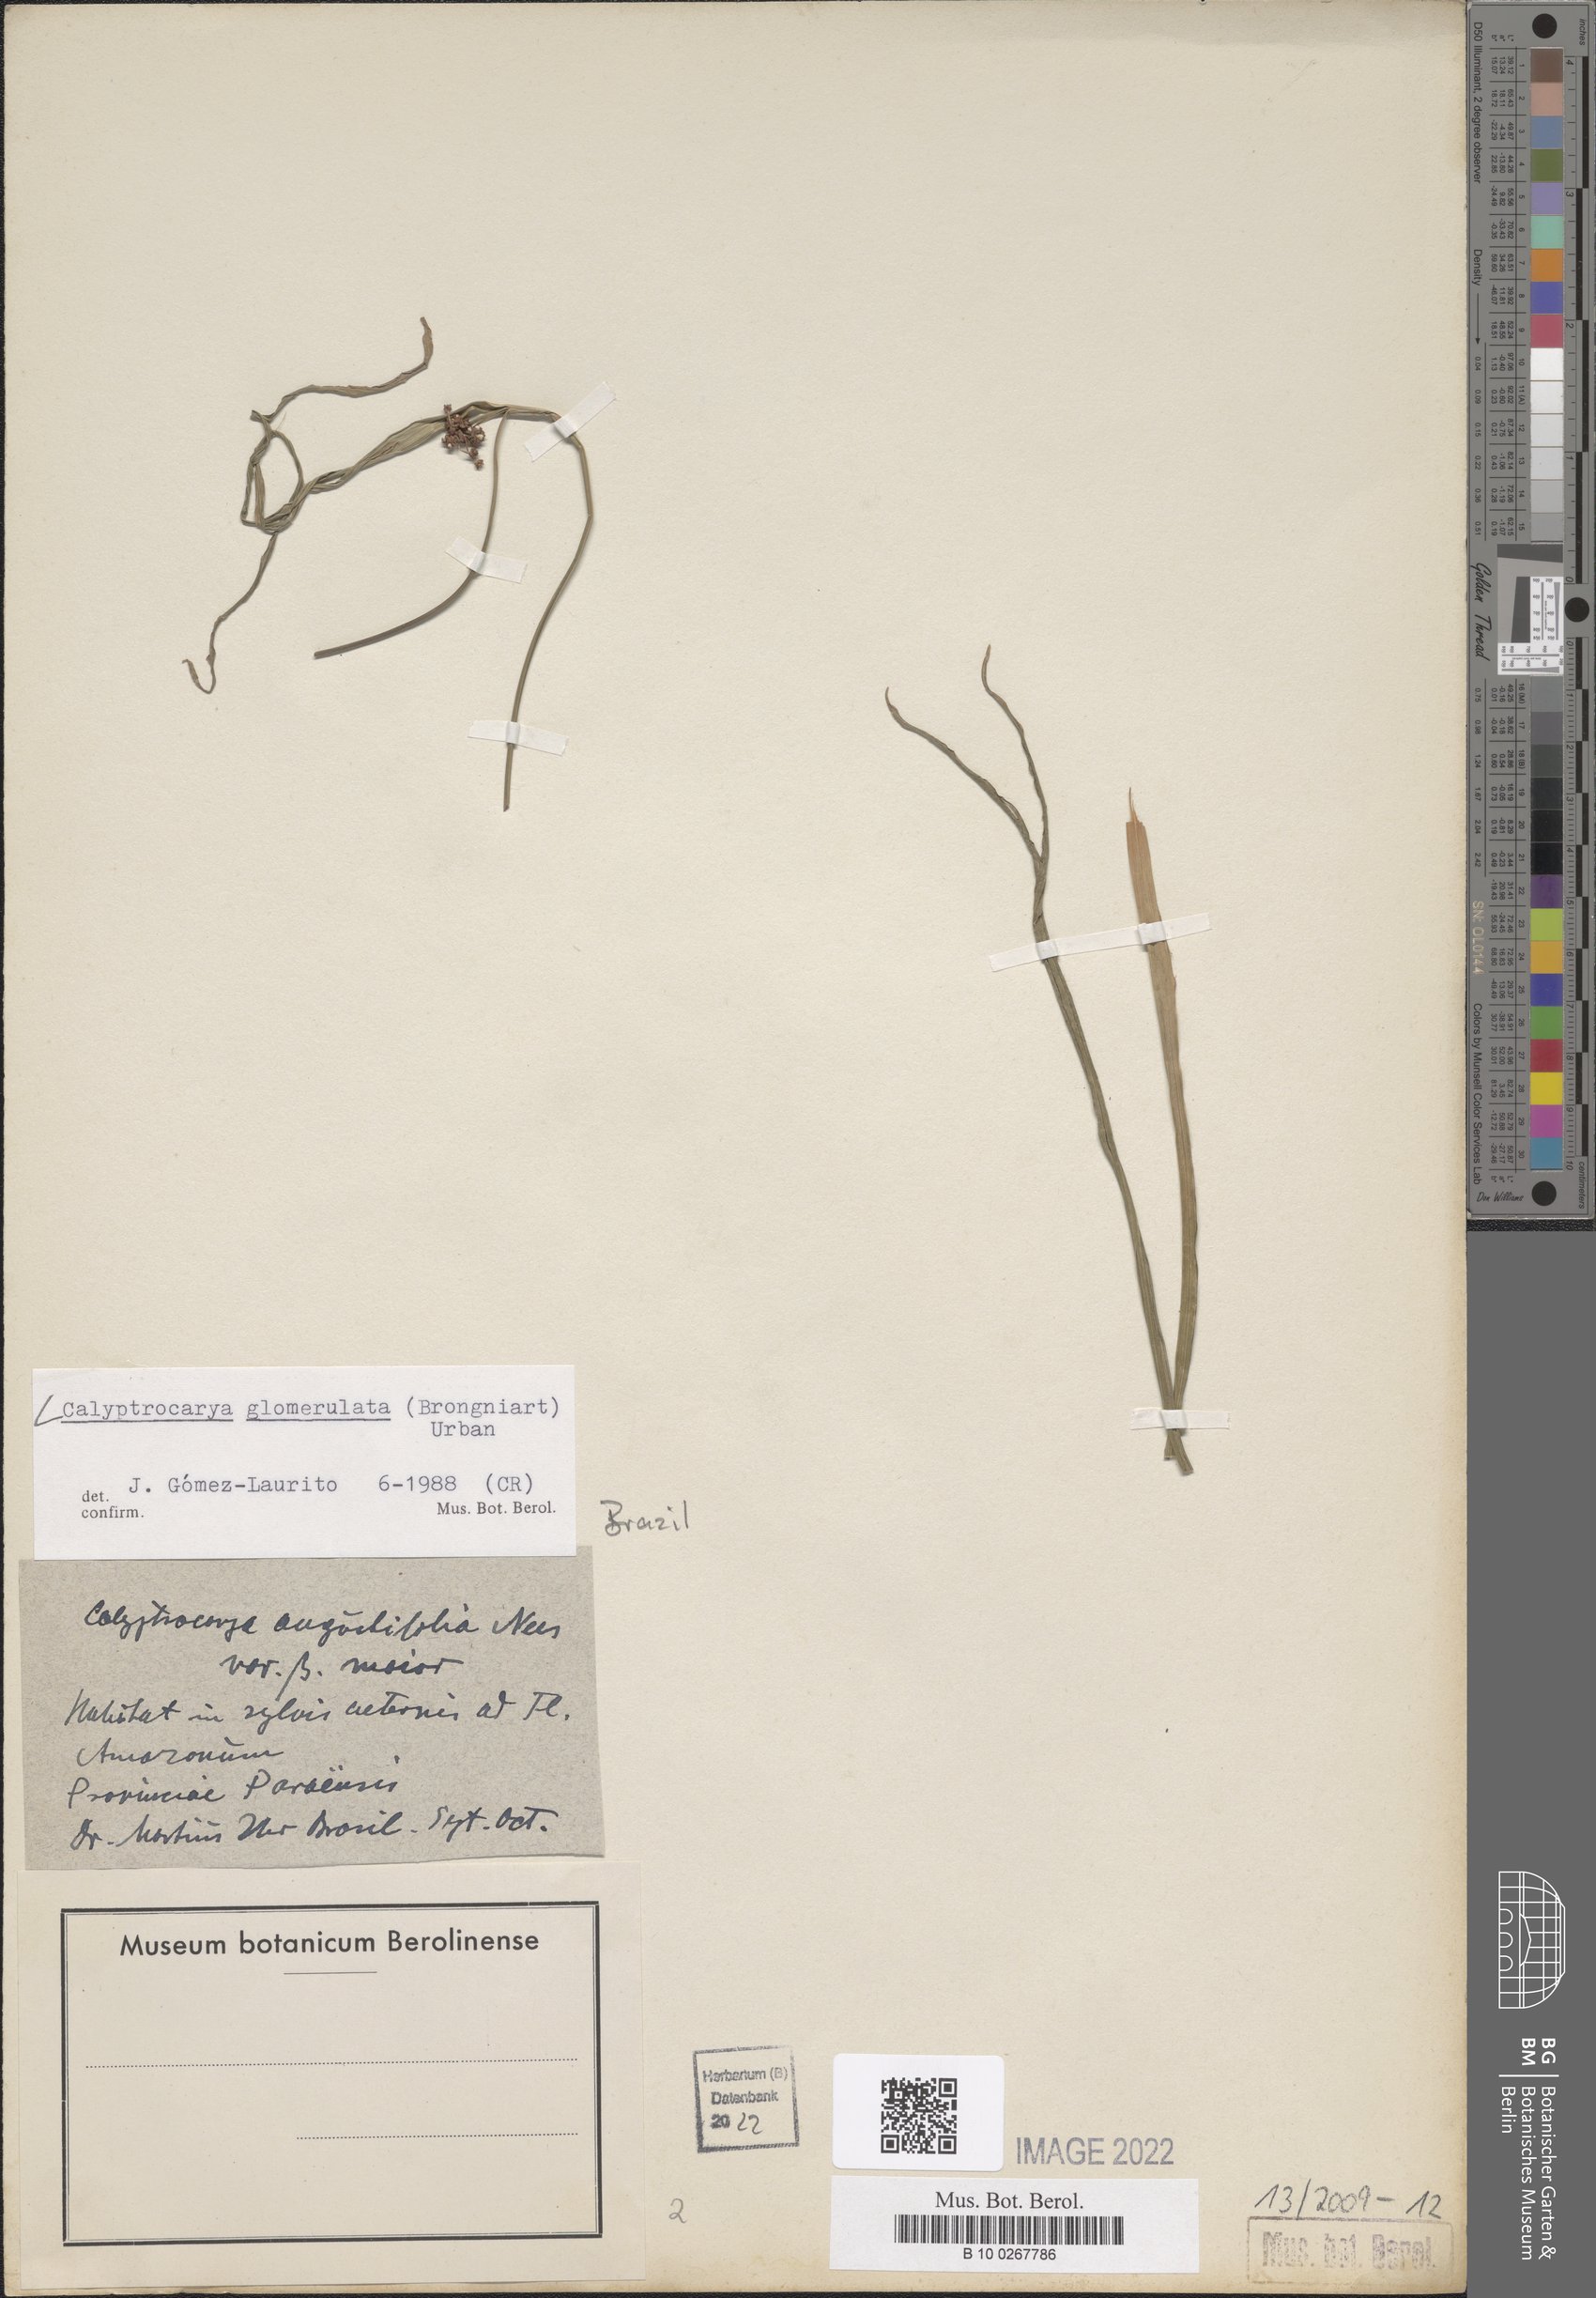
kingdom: Plantae
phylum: Tracheophyta
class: Liliopsida
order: Poales
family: Cyperaceae
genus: Calyptrocarya
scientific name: Calyptrocarya glomerulata
